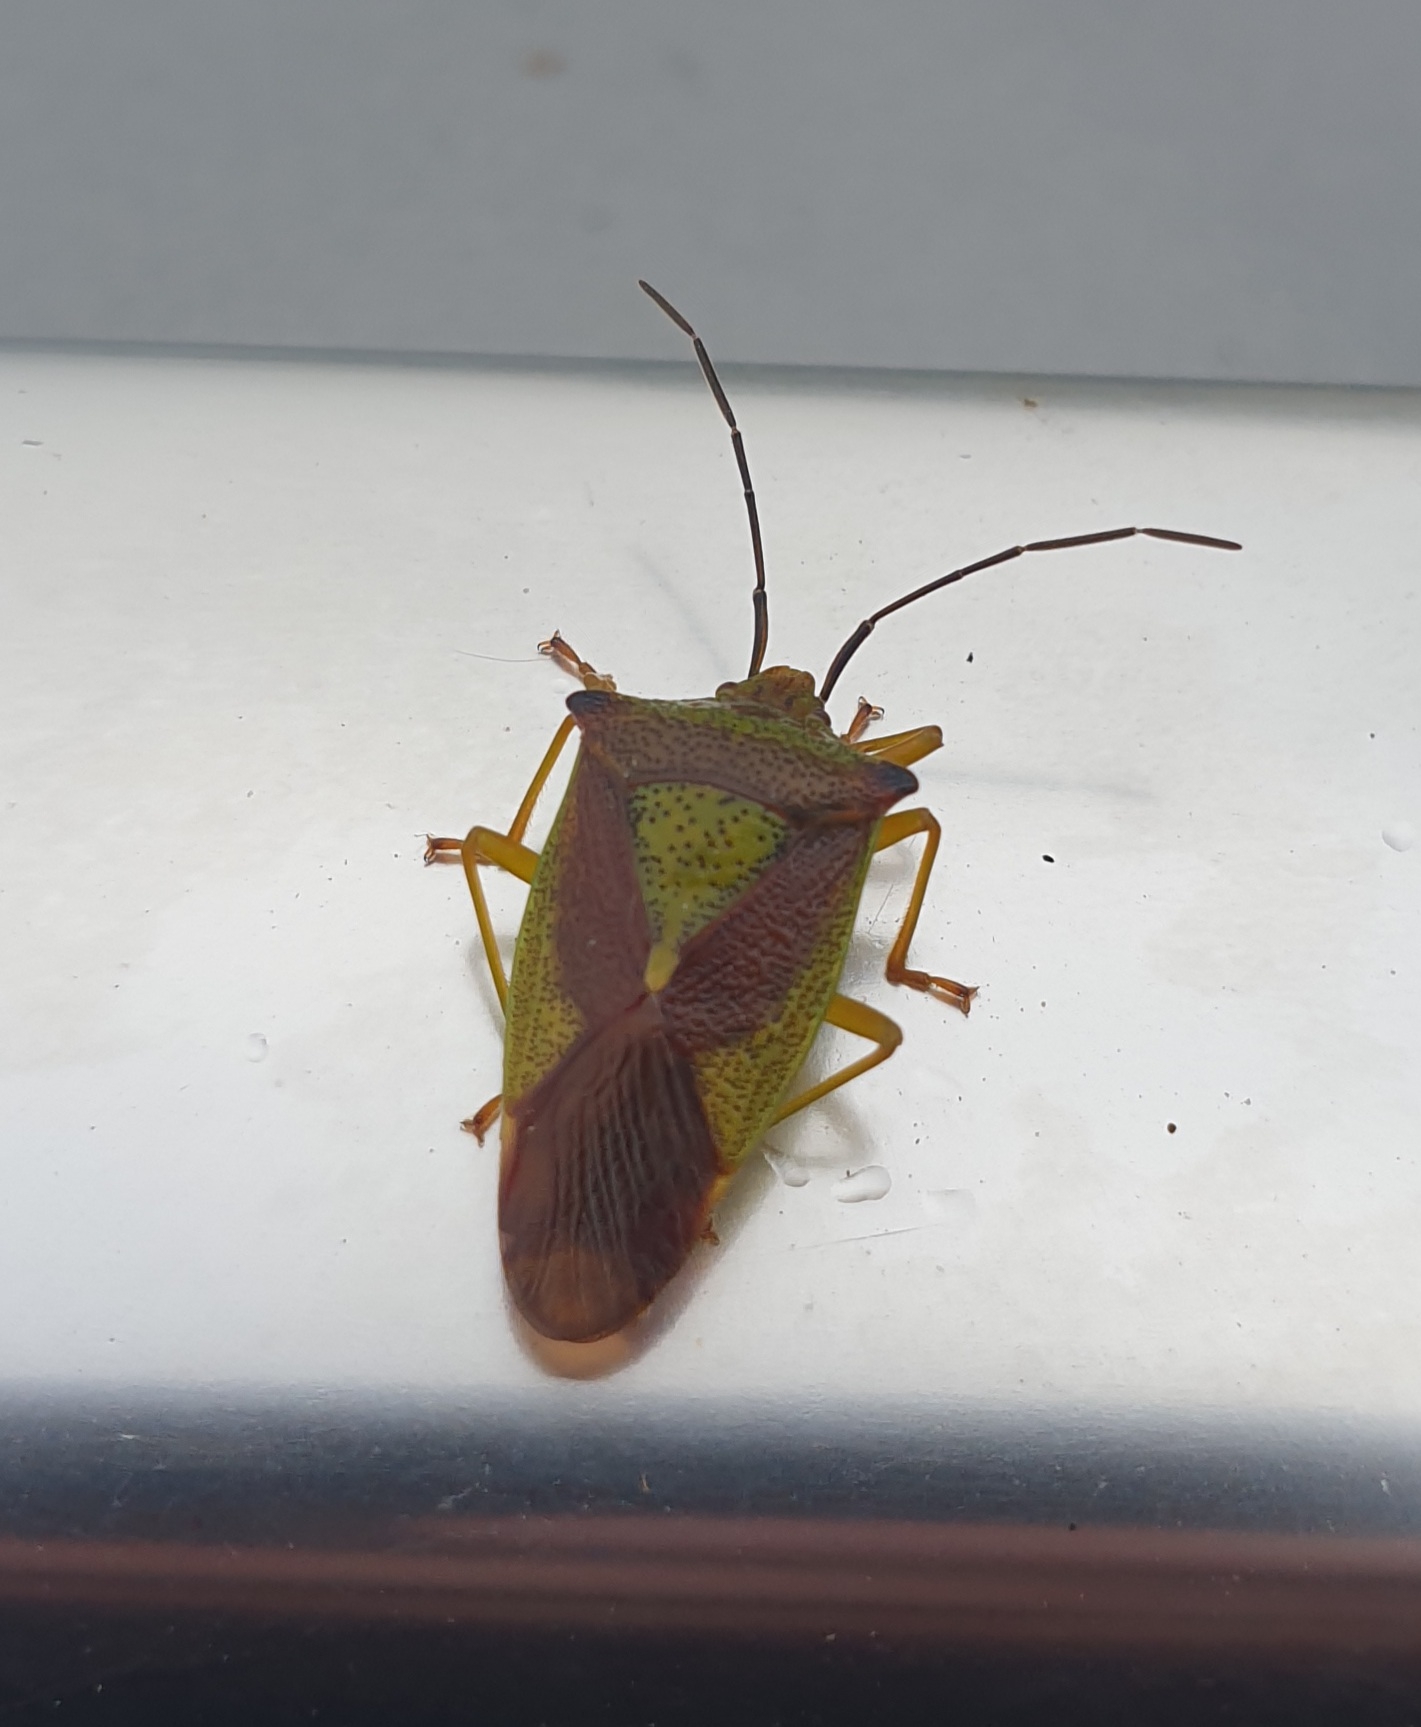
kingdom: Animalia
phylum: Arthropoda
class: Insecta
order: Hemiptera
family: Acanthosomatidae
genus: Acanthosoma
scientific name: Acanthosoma haemorrhoidale
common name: Stor løvtæge
